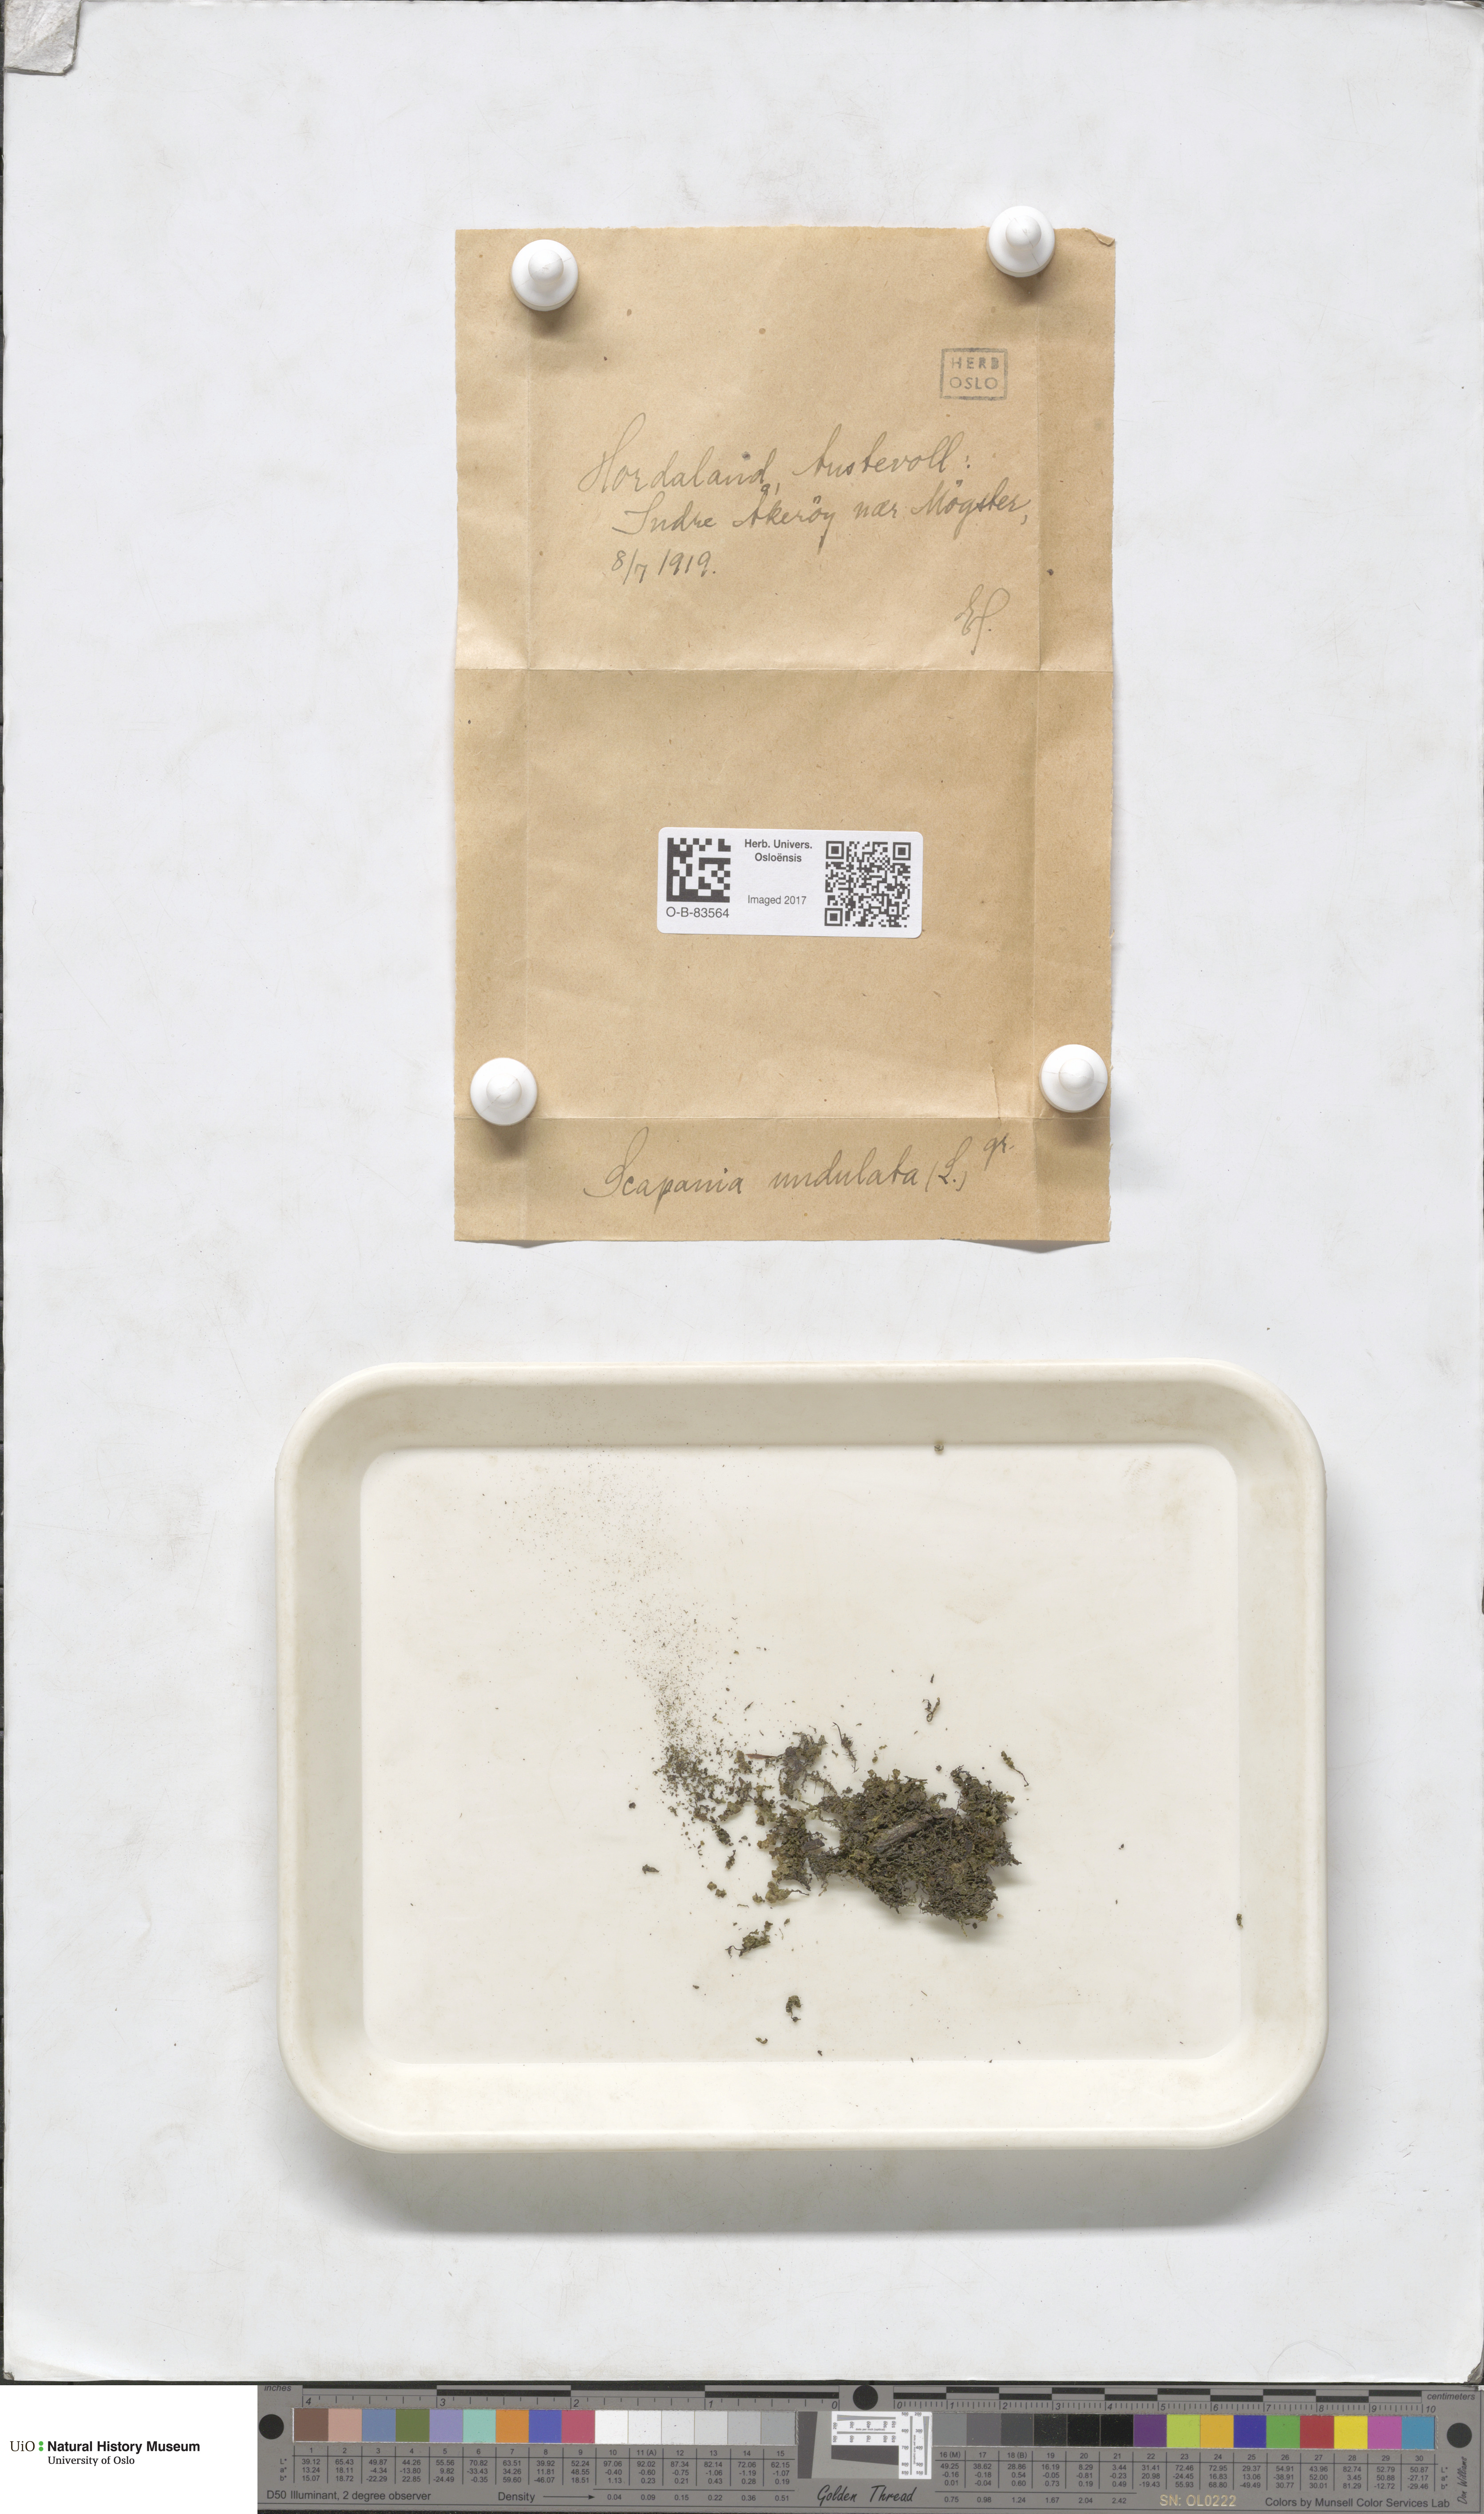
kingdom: Plantae
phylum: Marchantiophyta
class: Jungermanniopsida
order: Jungermanniales
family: Scapaniaceae
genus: Scapania
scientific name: Scapania undulata
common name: Water earwort
